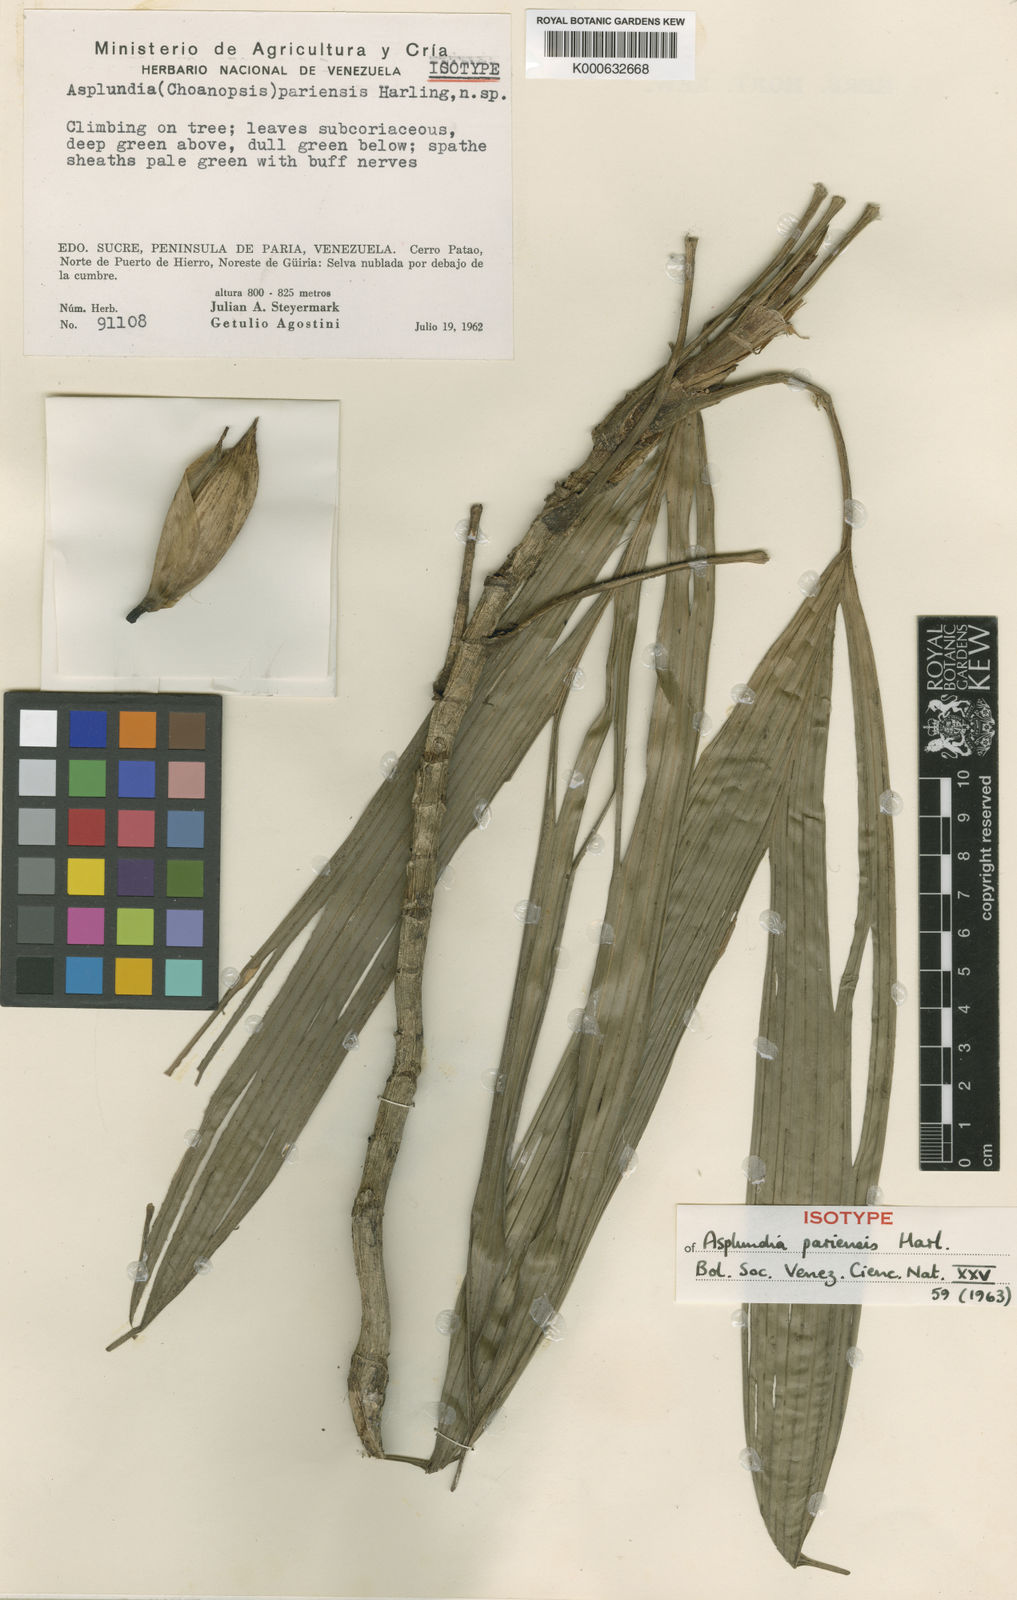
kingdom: Plantae
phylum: Tracheophyta
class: Liliopsida
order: Pandanales
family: Cyclanthaceae
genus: Asplundia
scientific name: Asplundia pariensis
